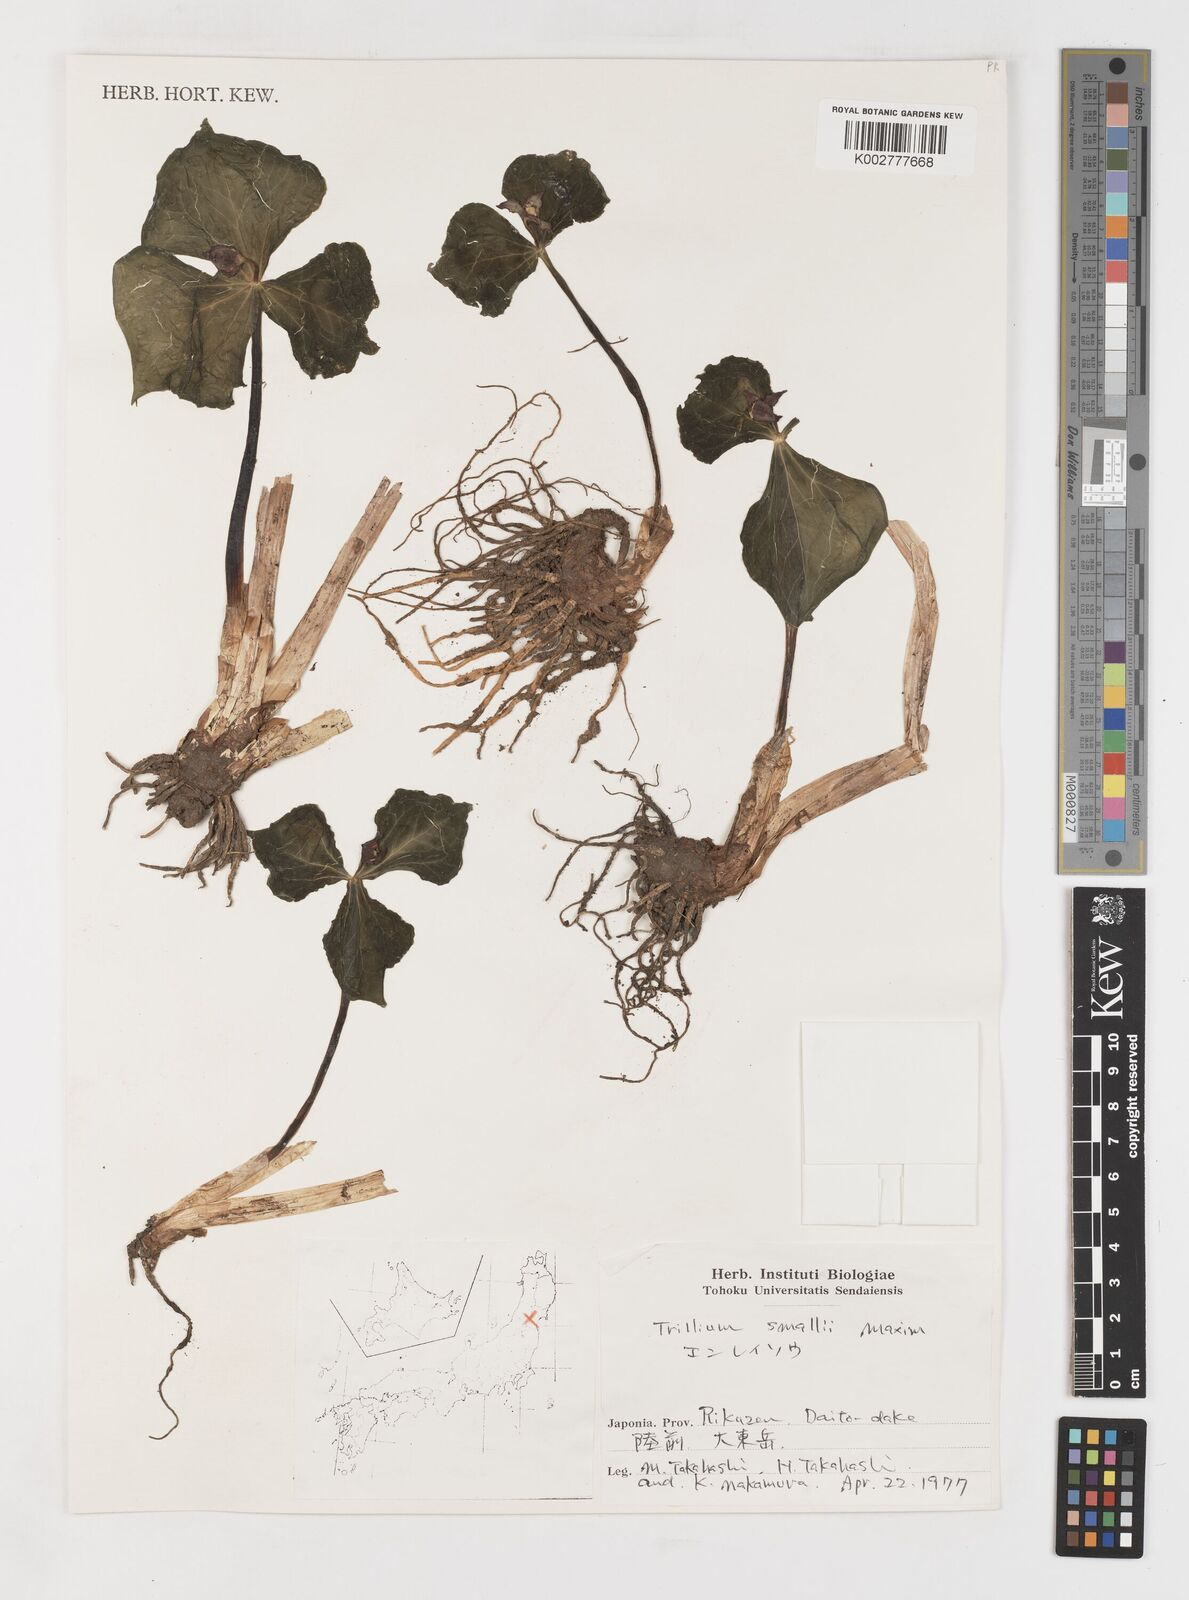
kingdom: Plantae
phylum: Tracheophyta
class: Liliopsida
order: Liliales
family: Melanthiaceae
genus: Trillium
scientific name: Trillium smallii
